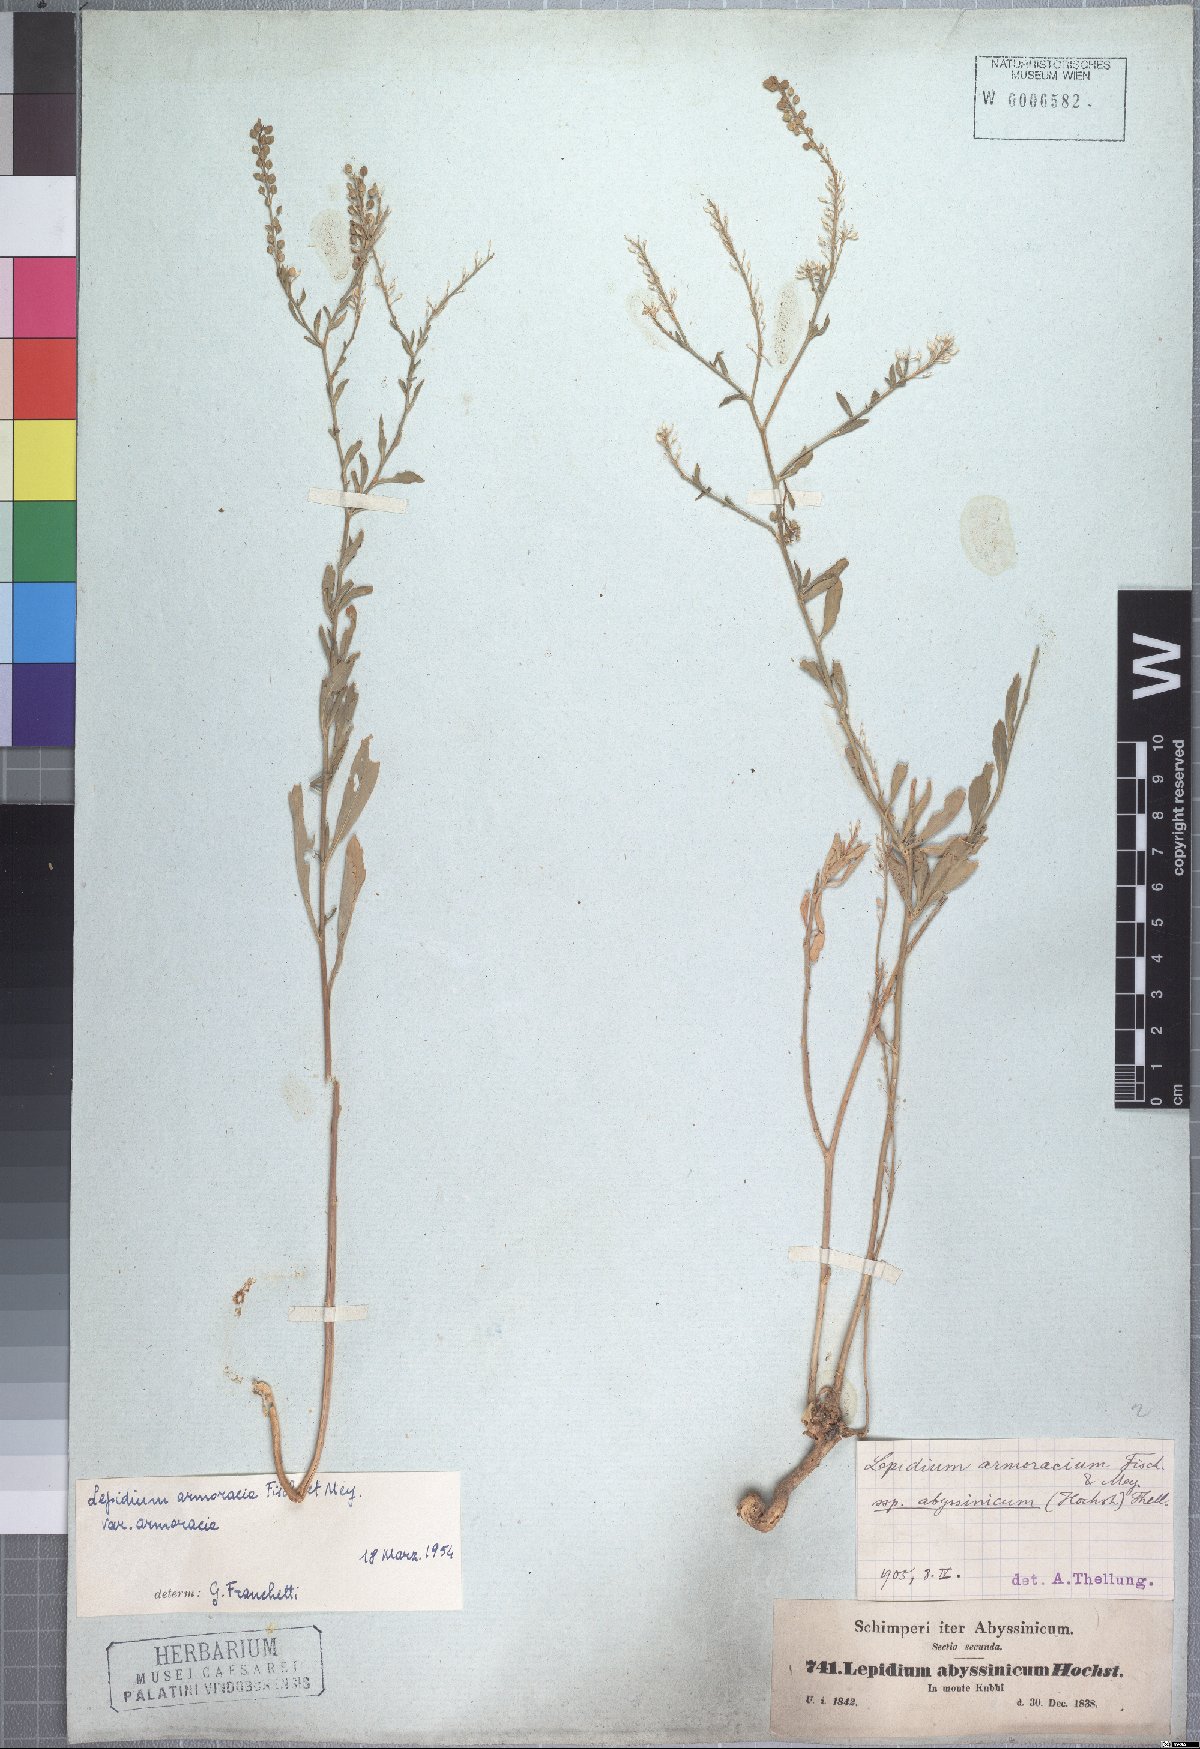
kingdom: Plantae
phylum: Tracheophyta
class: Magnoliopsida
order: Brassicales
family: Brassicaceae
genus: Lepidium
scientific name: Lepidium armoracia
